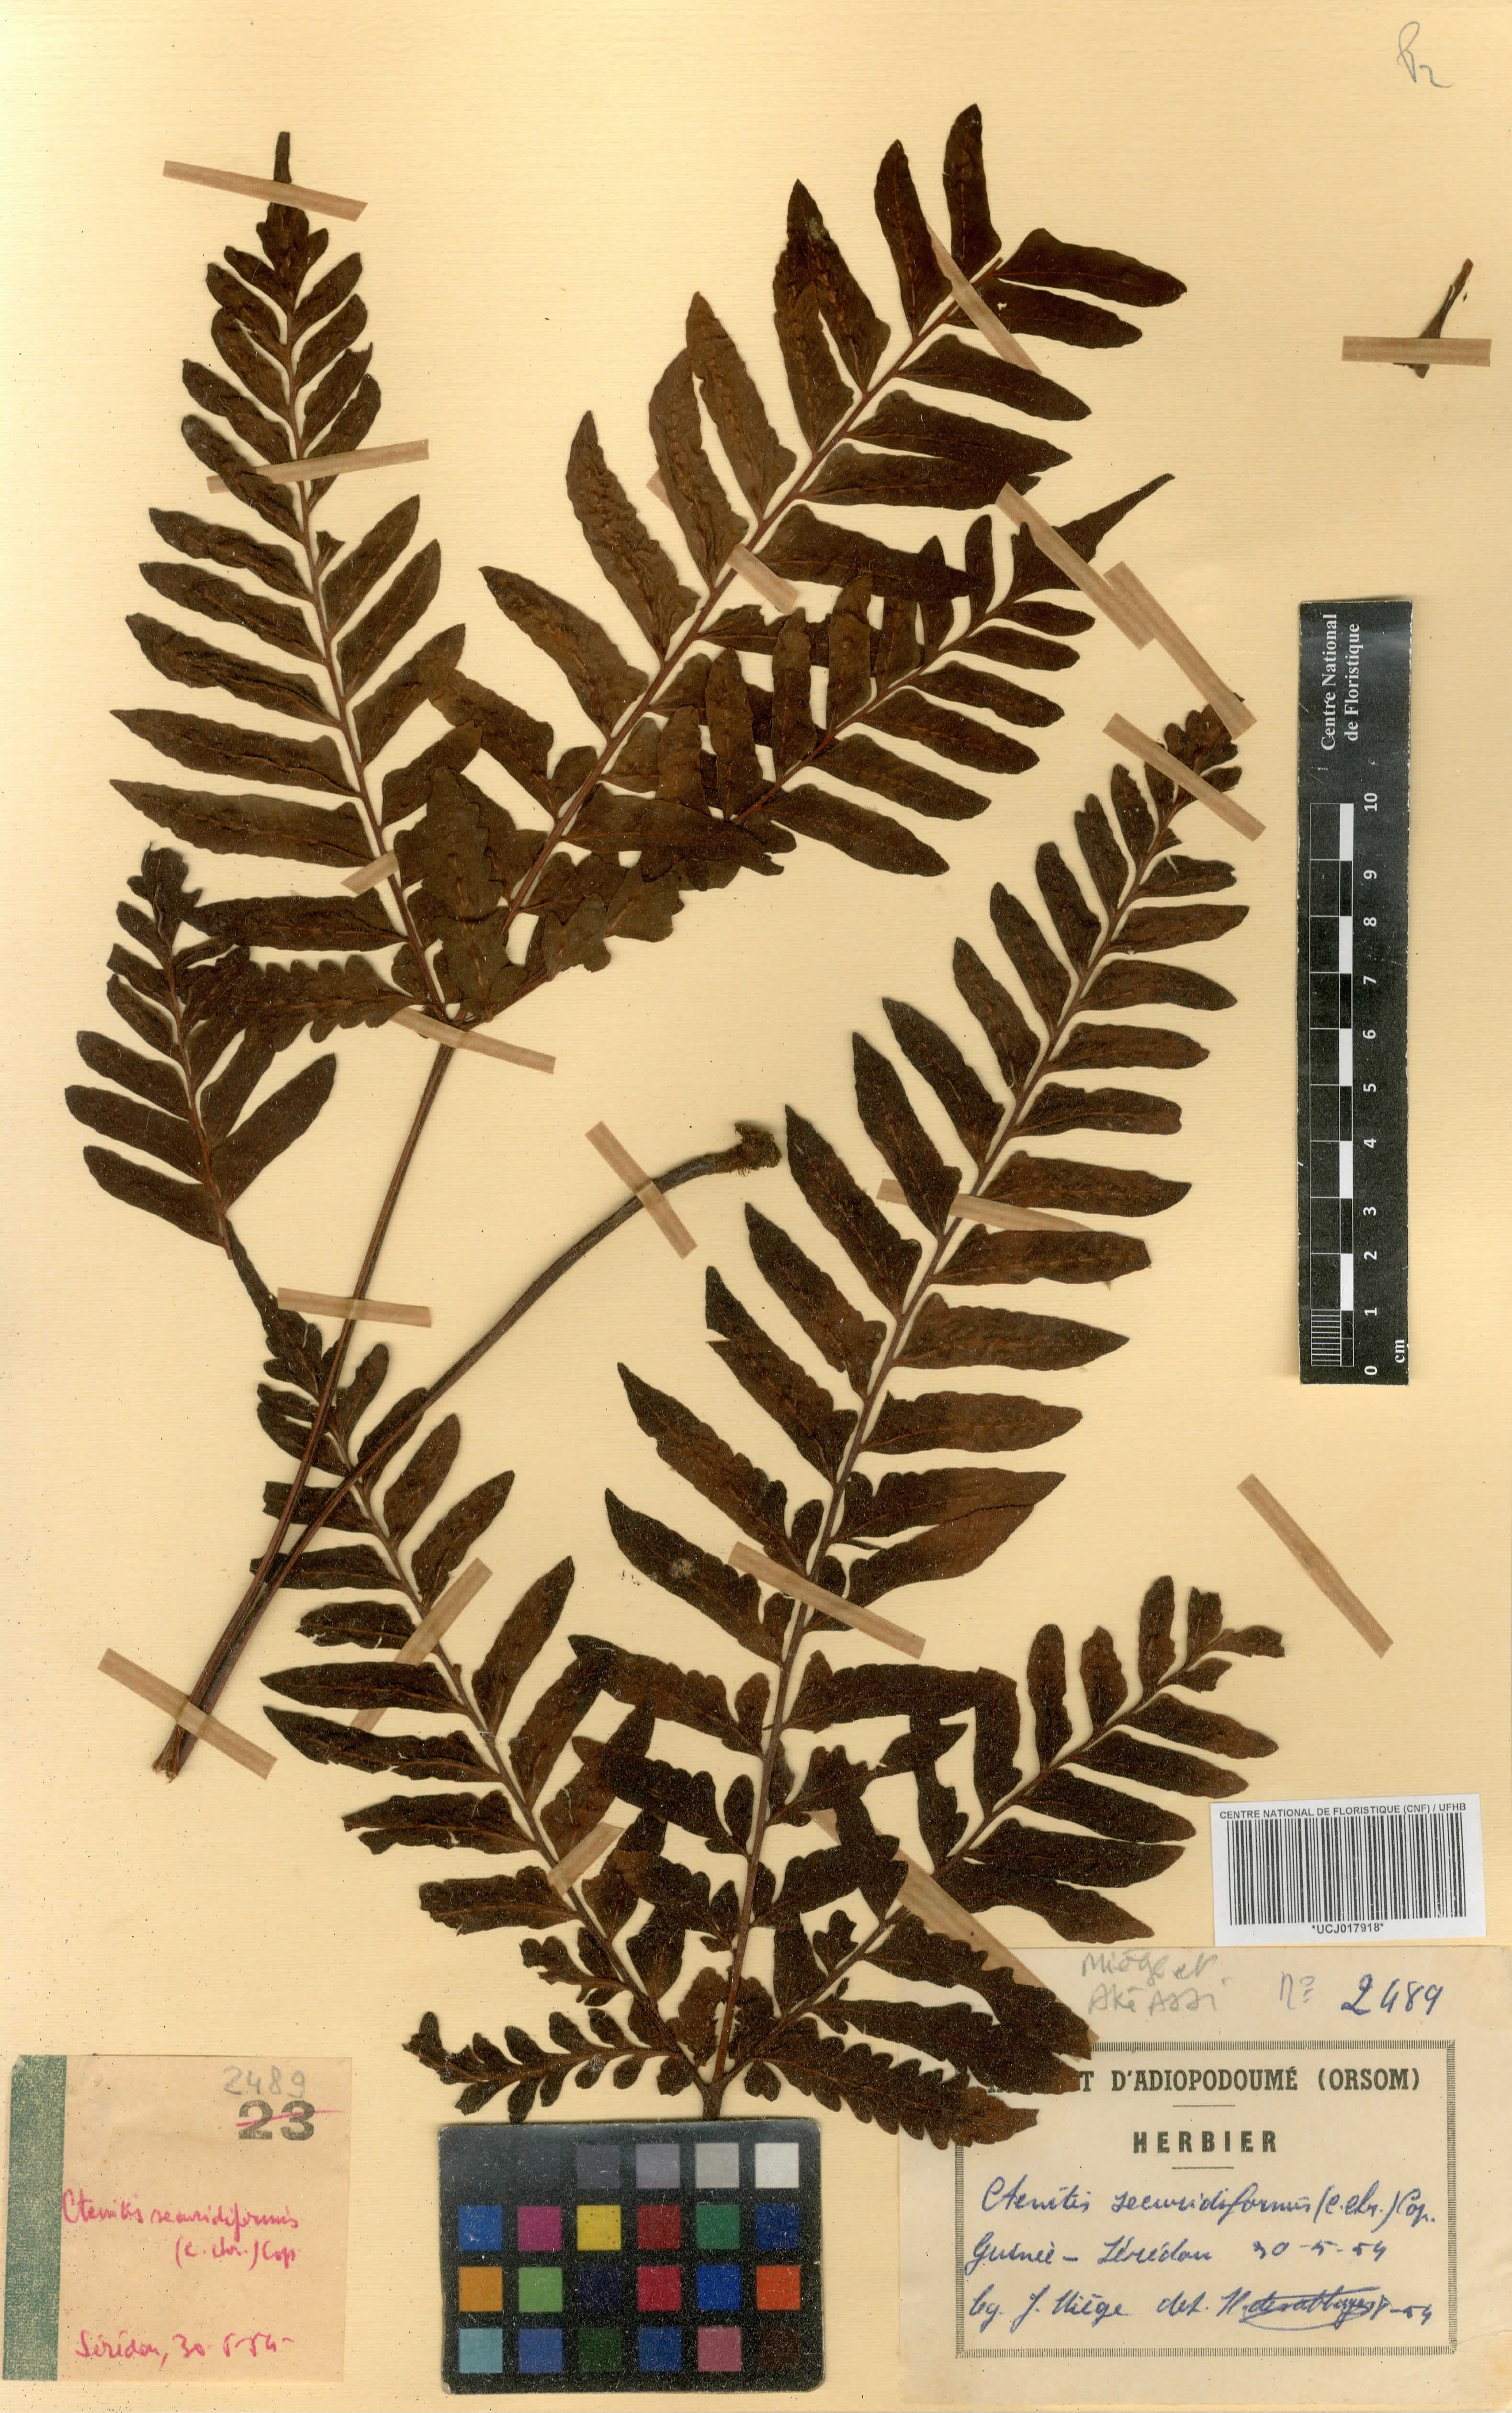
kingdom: Plantae
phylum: Tracheophyta
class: Polypodiopsida
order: Polypodiales
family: Tectariaceae
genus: Triplophyllum
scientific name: Triplophyllum securidiforme
